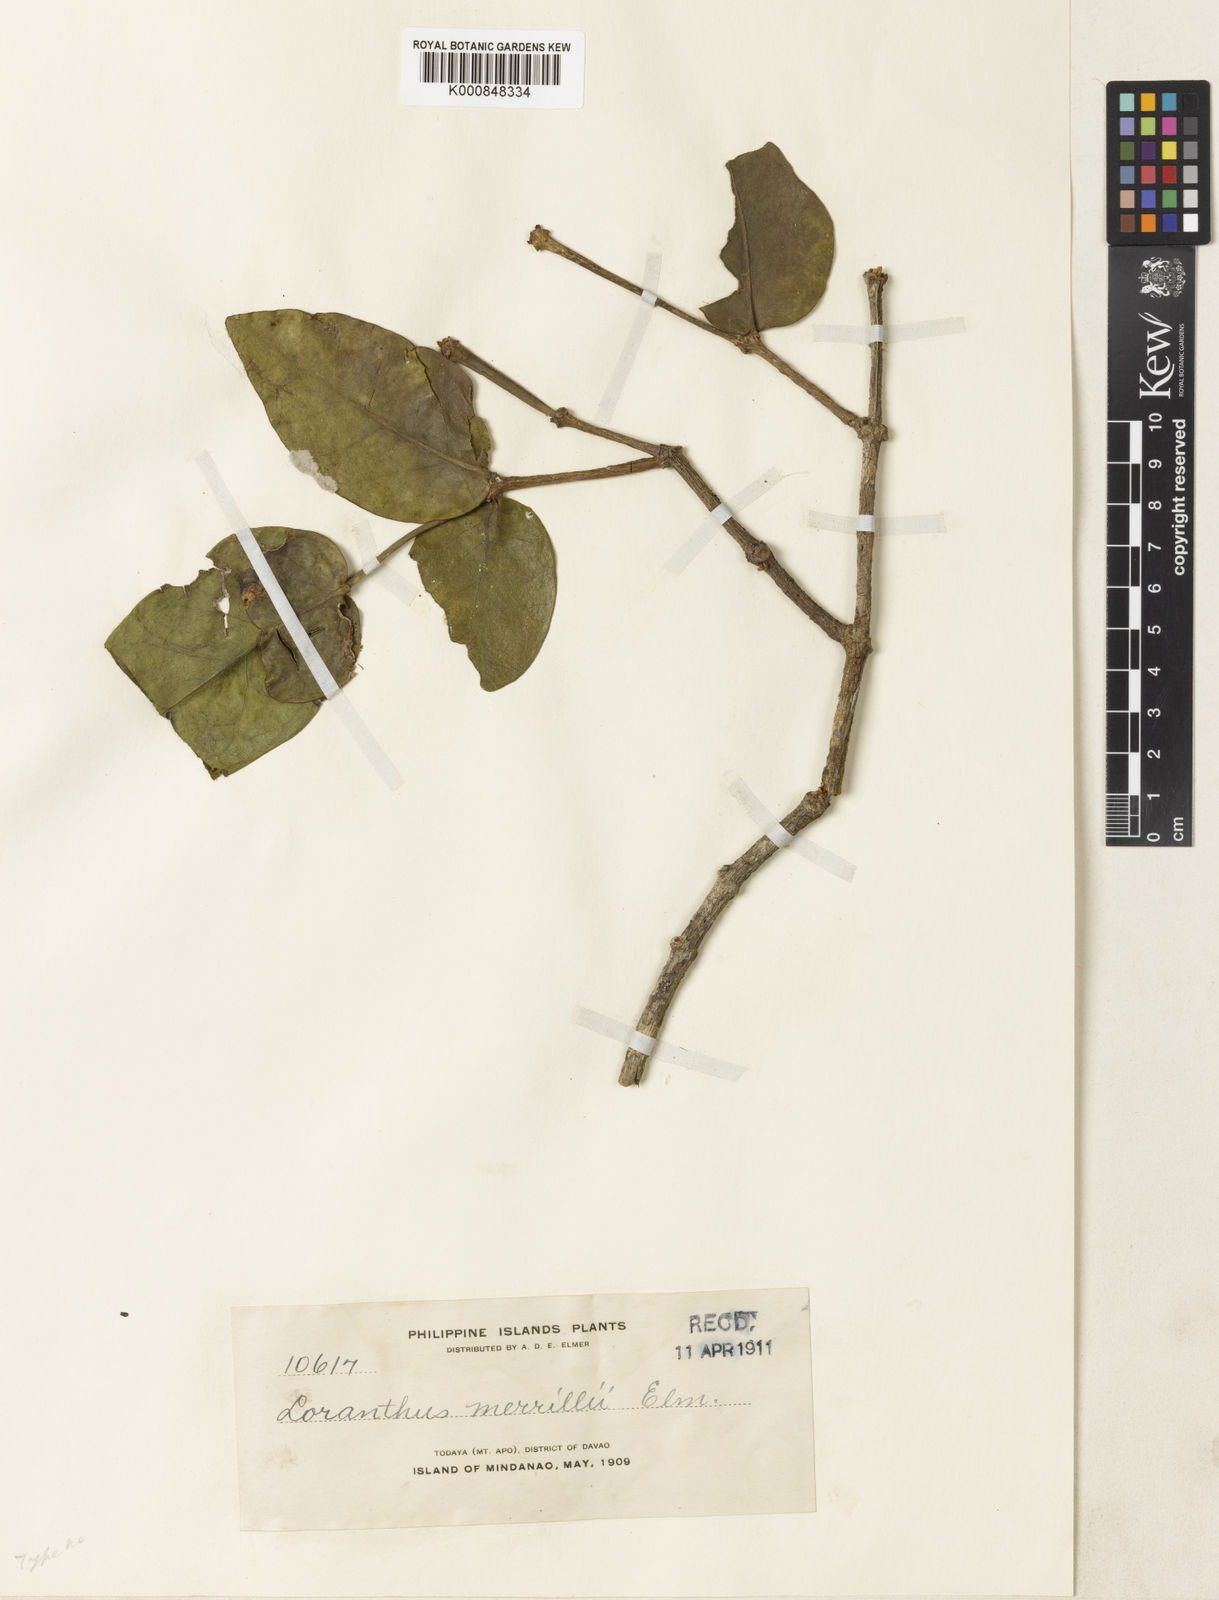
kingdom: Plantae
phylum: Tracheophyta
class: Magnoliopsida
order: Santalales
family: Loranthaceae
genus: Decaisnina
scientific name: Decaisnina cumingii
